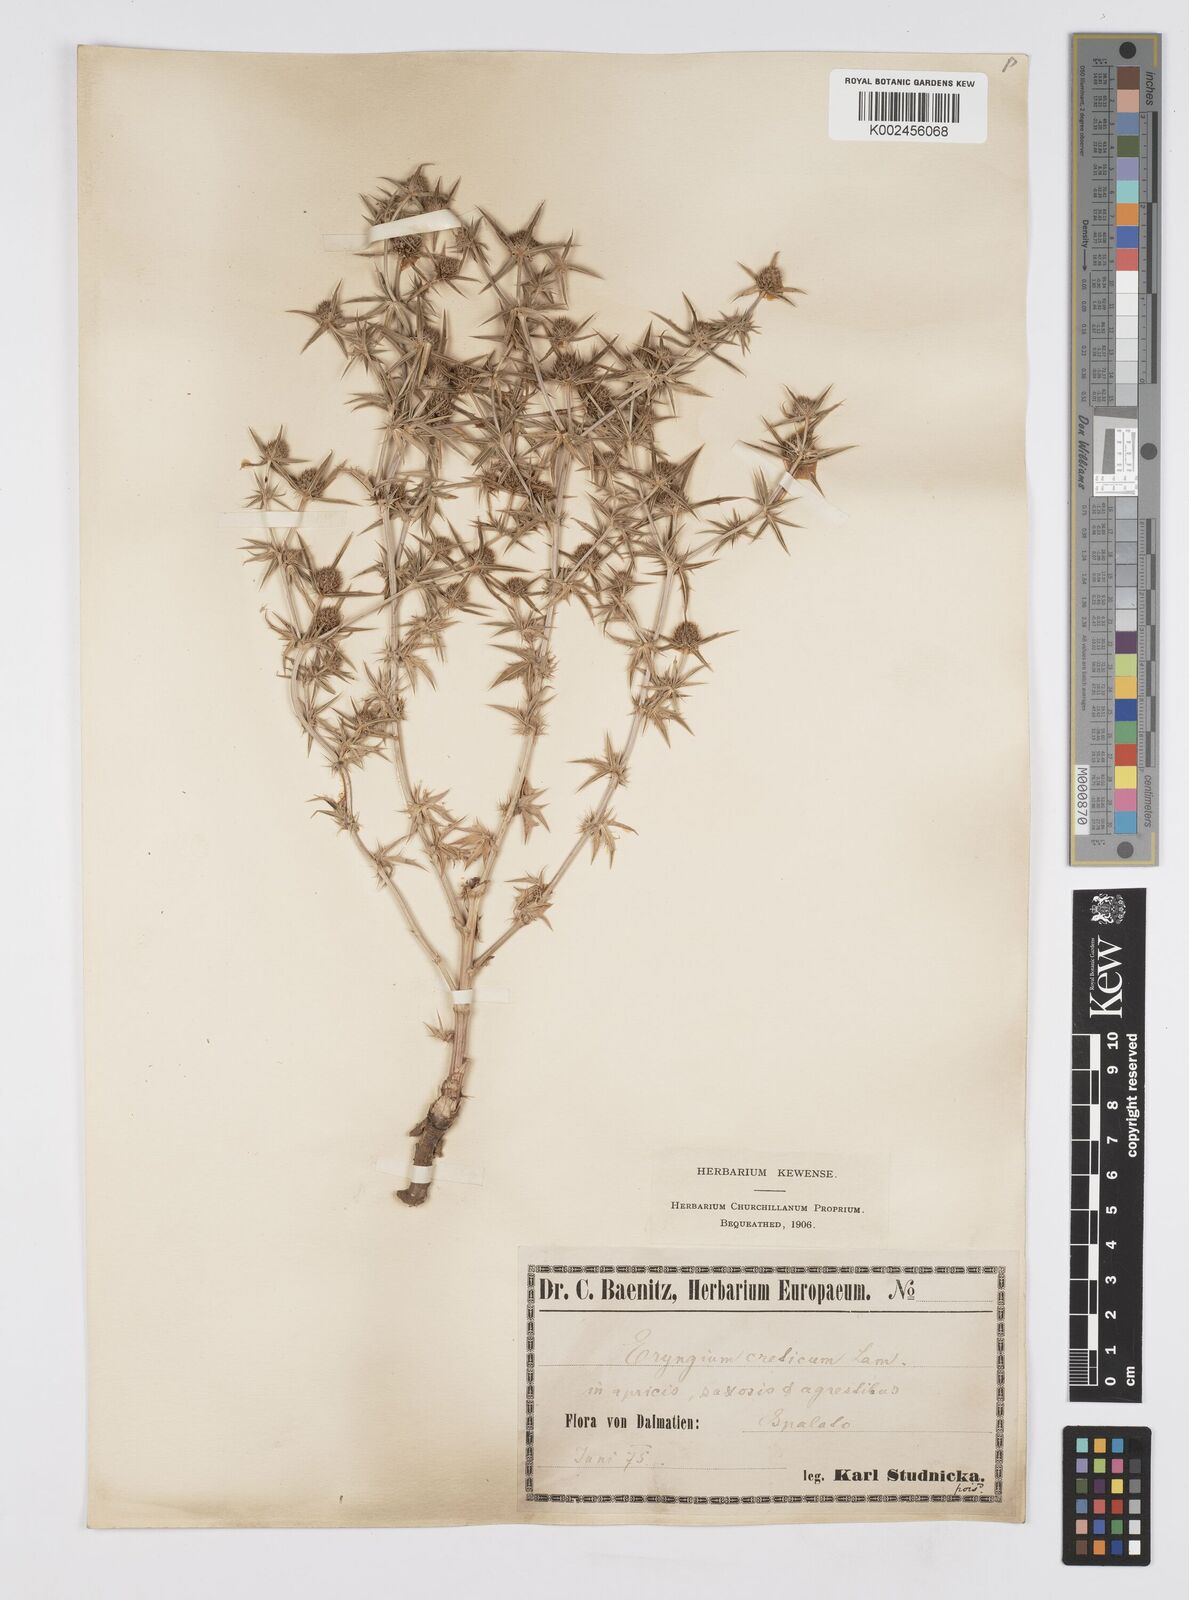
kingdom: Plantae
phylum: Tracheophyta
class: Magnoliopsida
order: Apiales
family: Apiaceae
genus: Eryngium
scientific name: Eryngium creticum
